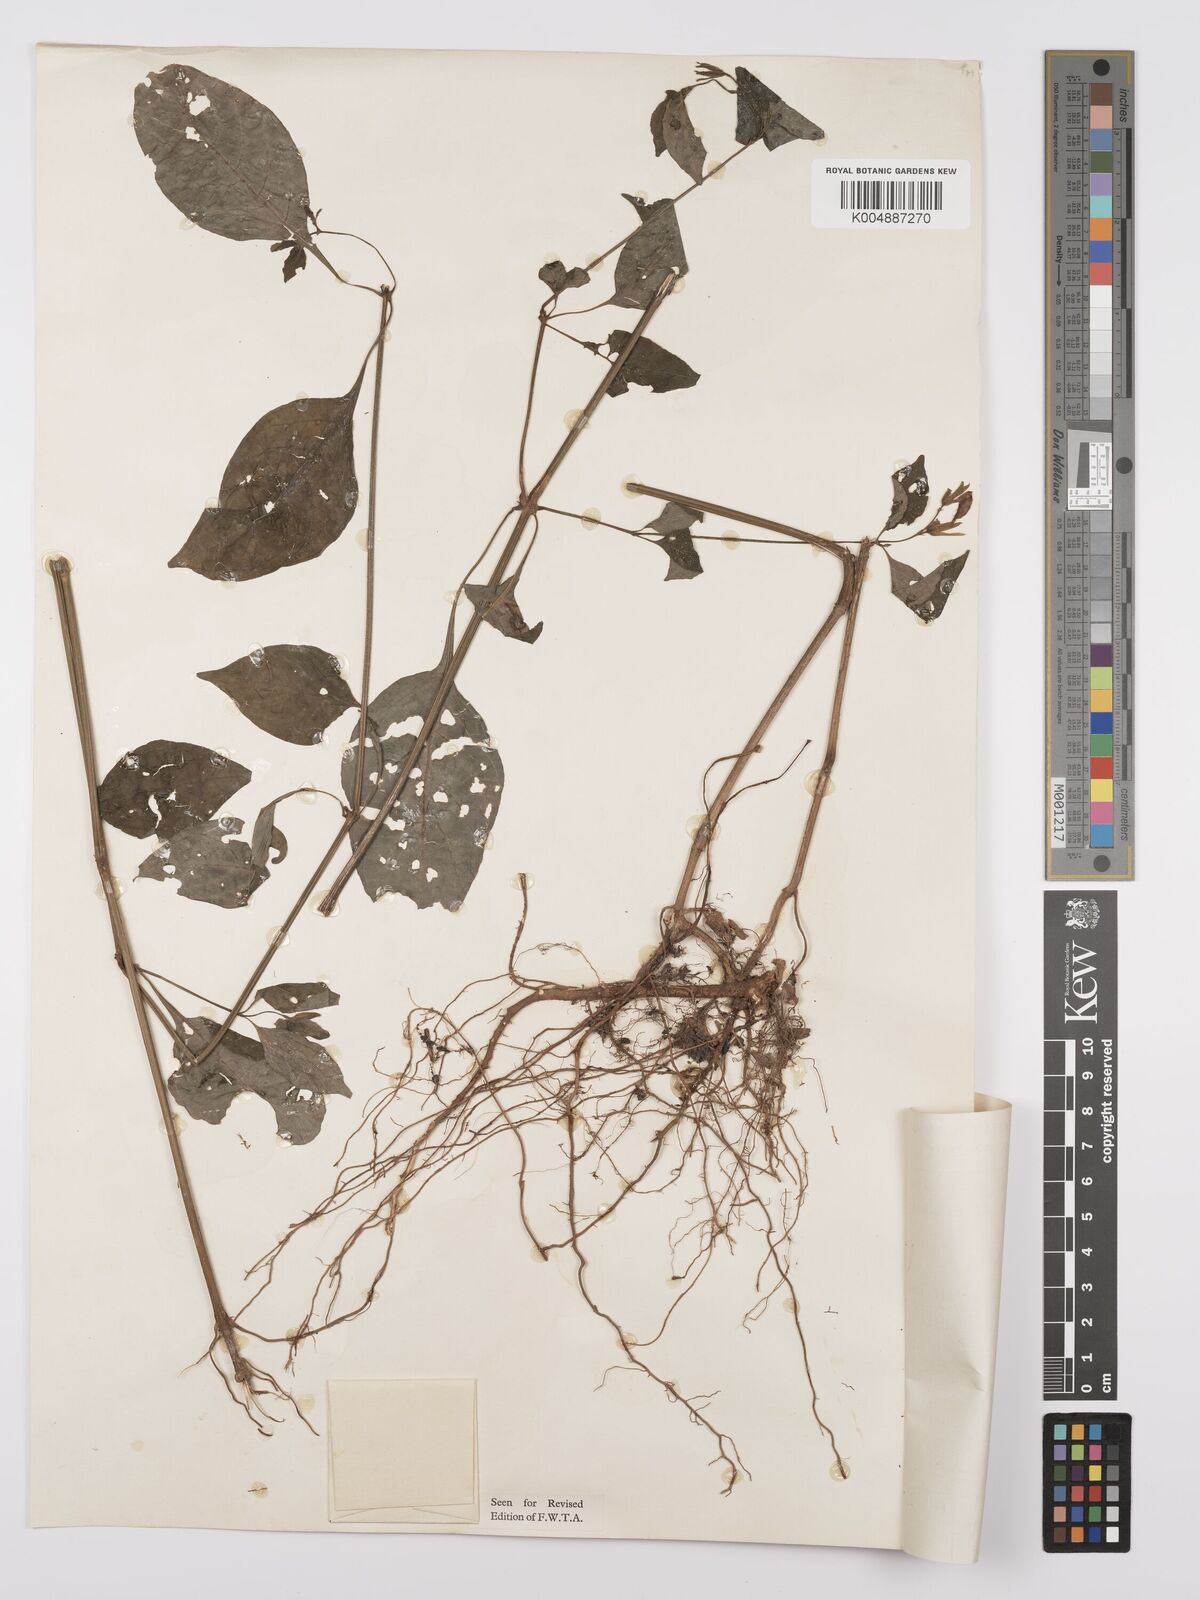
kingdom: Plantae
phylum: Tracheophyta
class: Magnoliopsida
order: Lamiales
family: Acanthaceae
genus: Asystasia
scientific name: Asystasia buettneri
